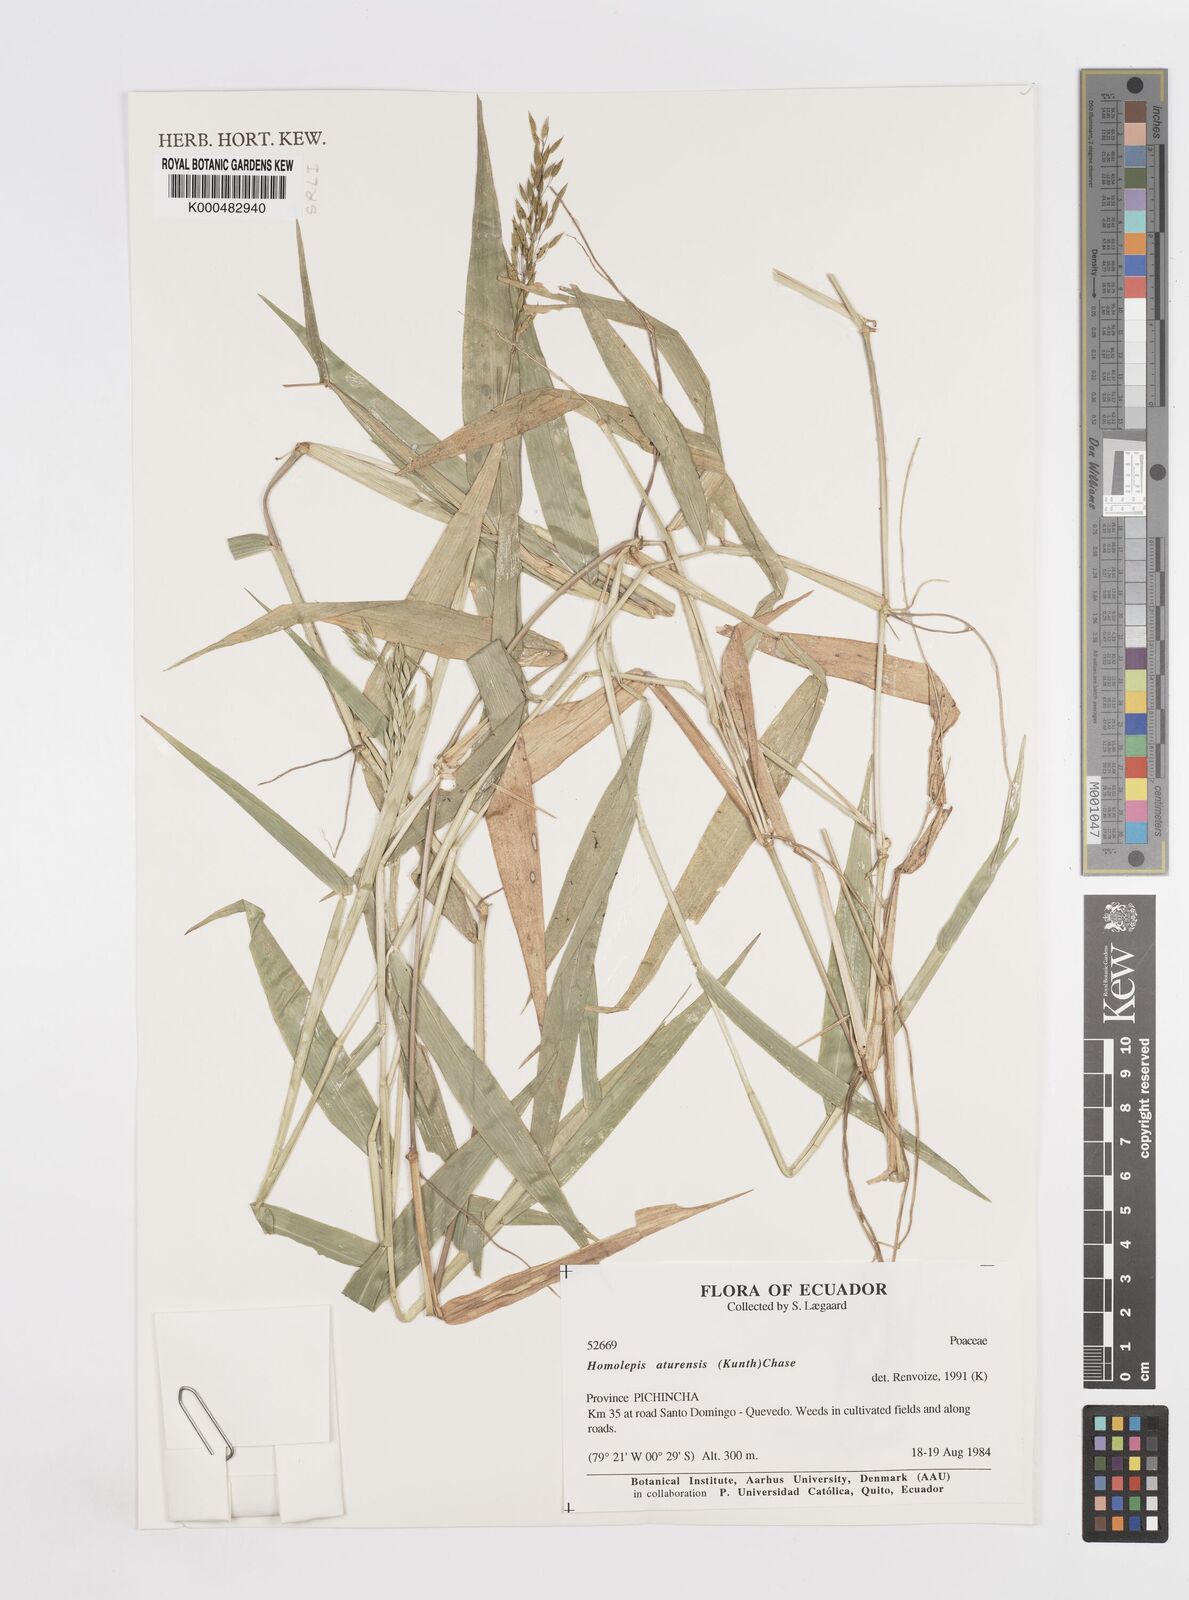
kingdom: Plantae
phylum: Tracheophyta
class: Liliopsida
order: Poales
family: Poaceae
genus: Homolepis
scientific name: Homolepis aturensis
